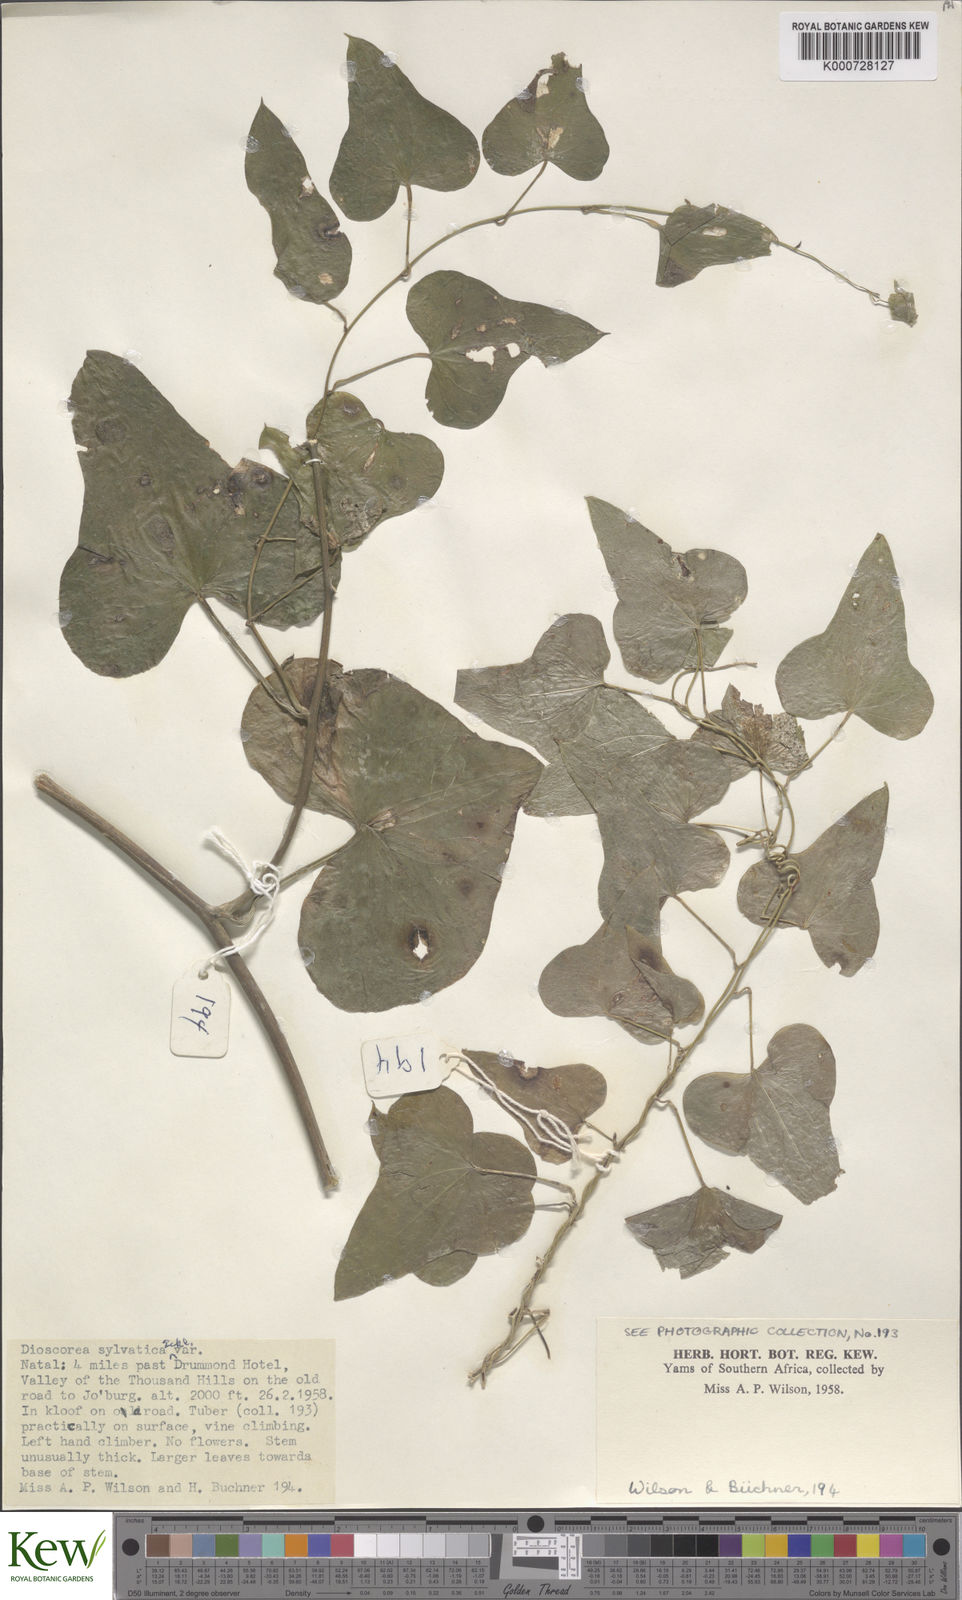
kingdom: Plantae
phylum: Tracheophyta
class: Liliopsida
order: Dioscoreales
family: Dioscoreaceae
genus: Dioscorea
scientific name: Dioscorea sylvatica
